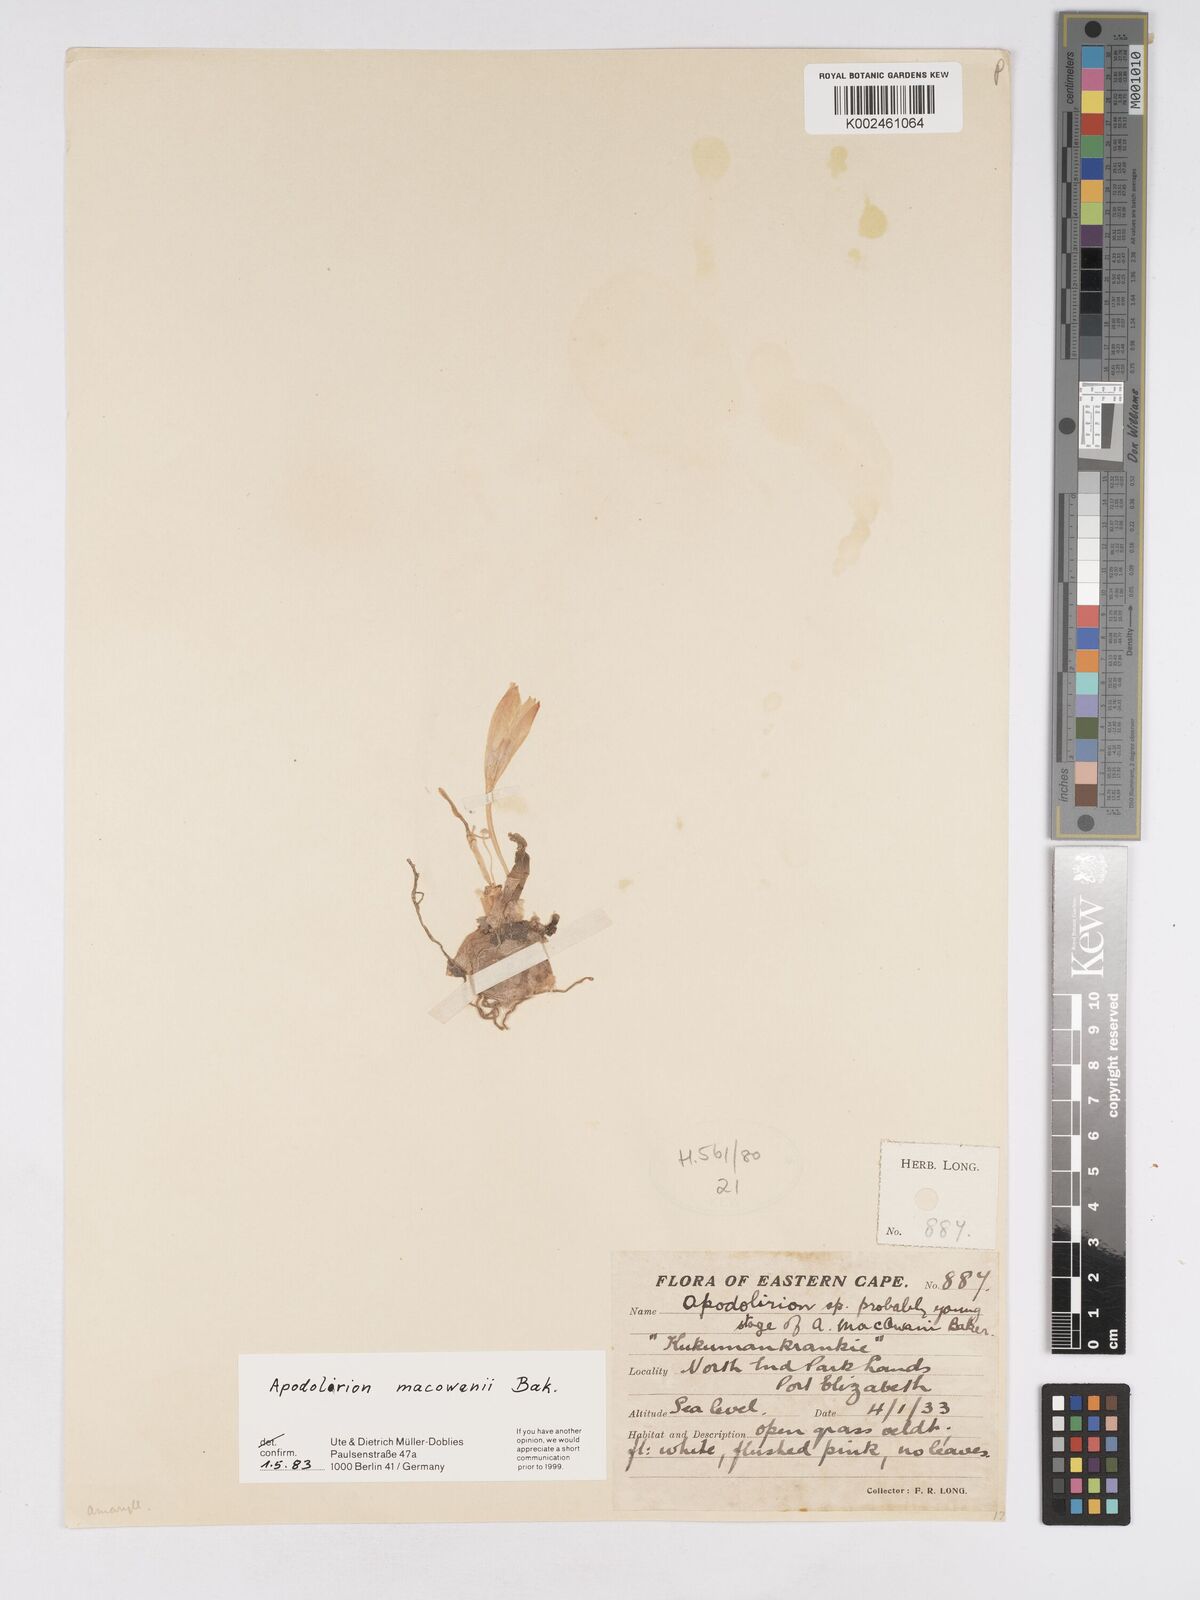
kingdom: Plantae
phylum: Tracheophyta
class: Liliopsida
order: Asparagales
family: Amaryllidaceae
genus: Apodolirion
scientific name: Apodolirion macowanii
